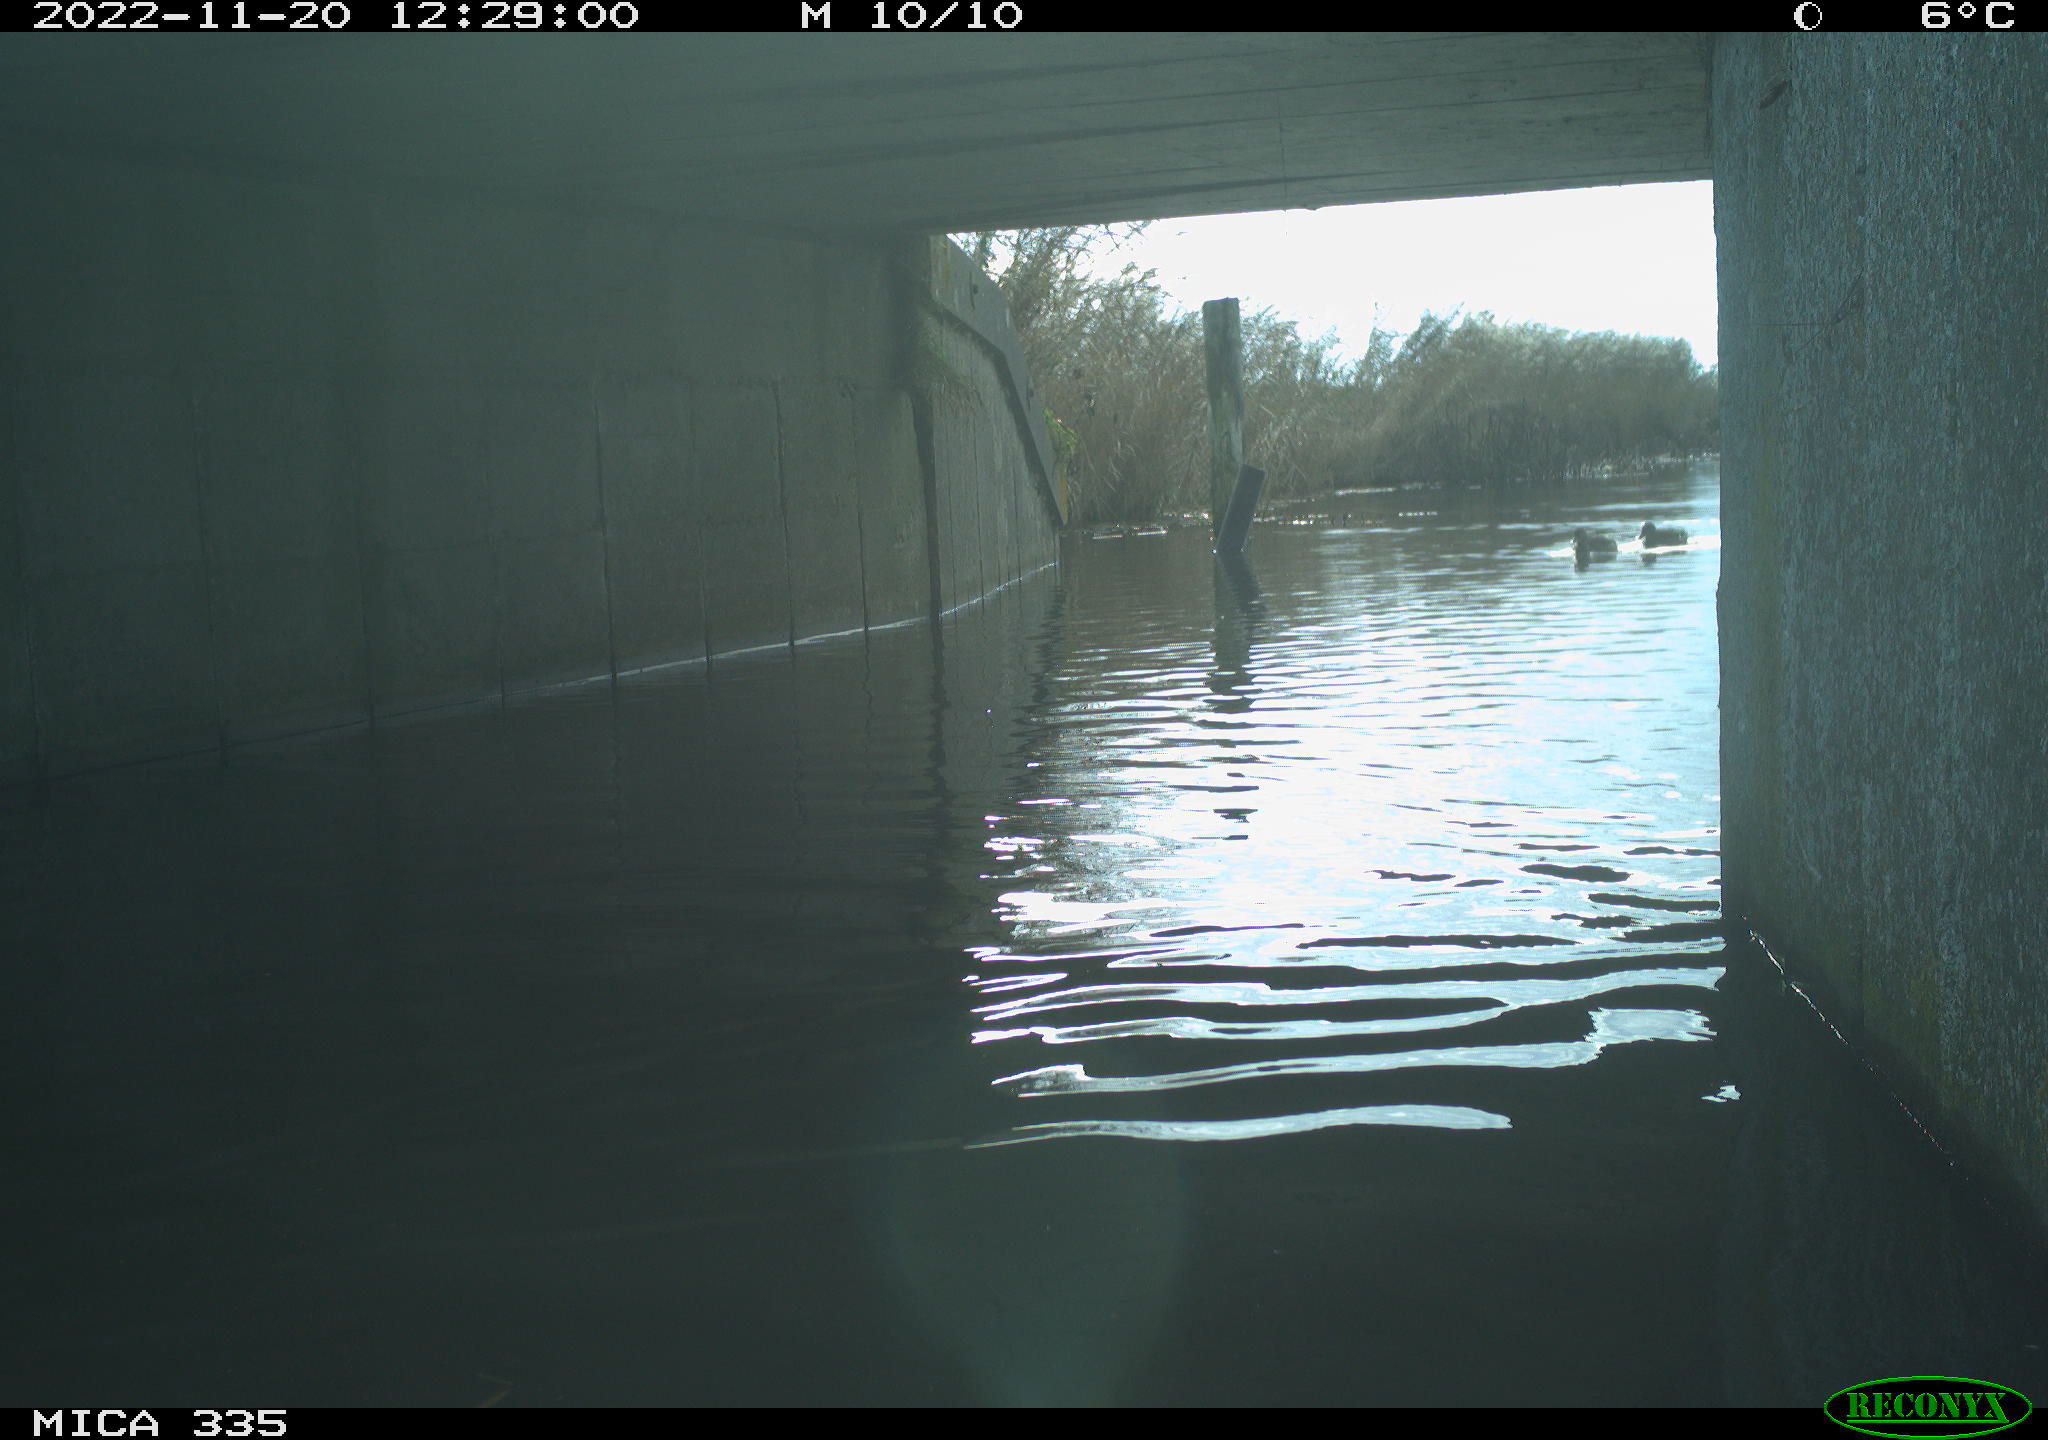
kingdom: Animalia
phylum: Chordata
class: Aves
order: Anseriformes
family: Anatidae
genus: Anas
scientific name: Anas
